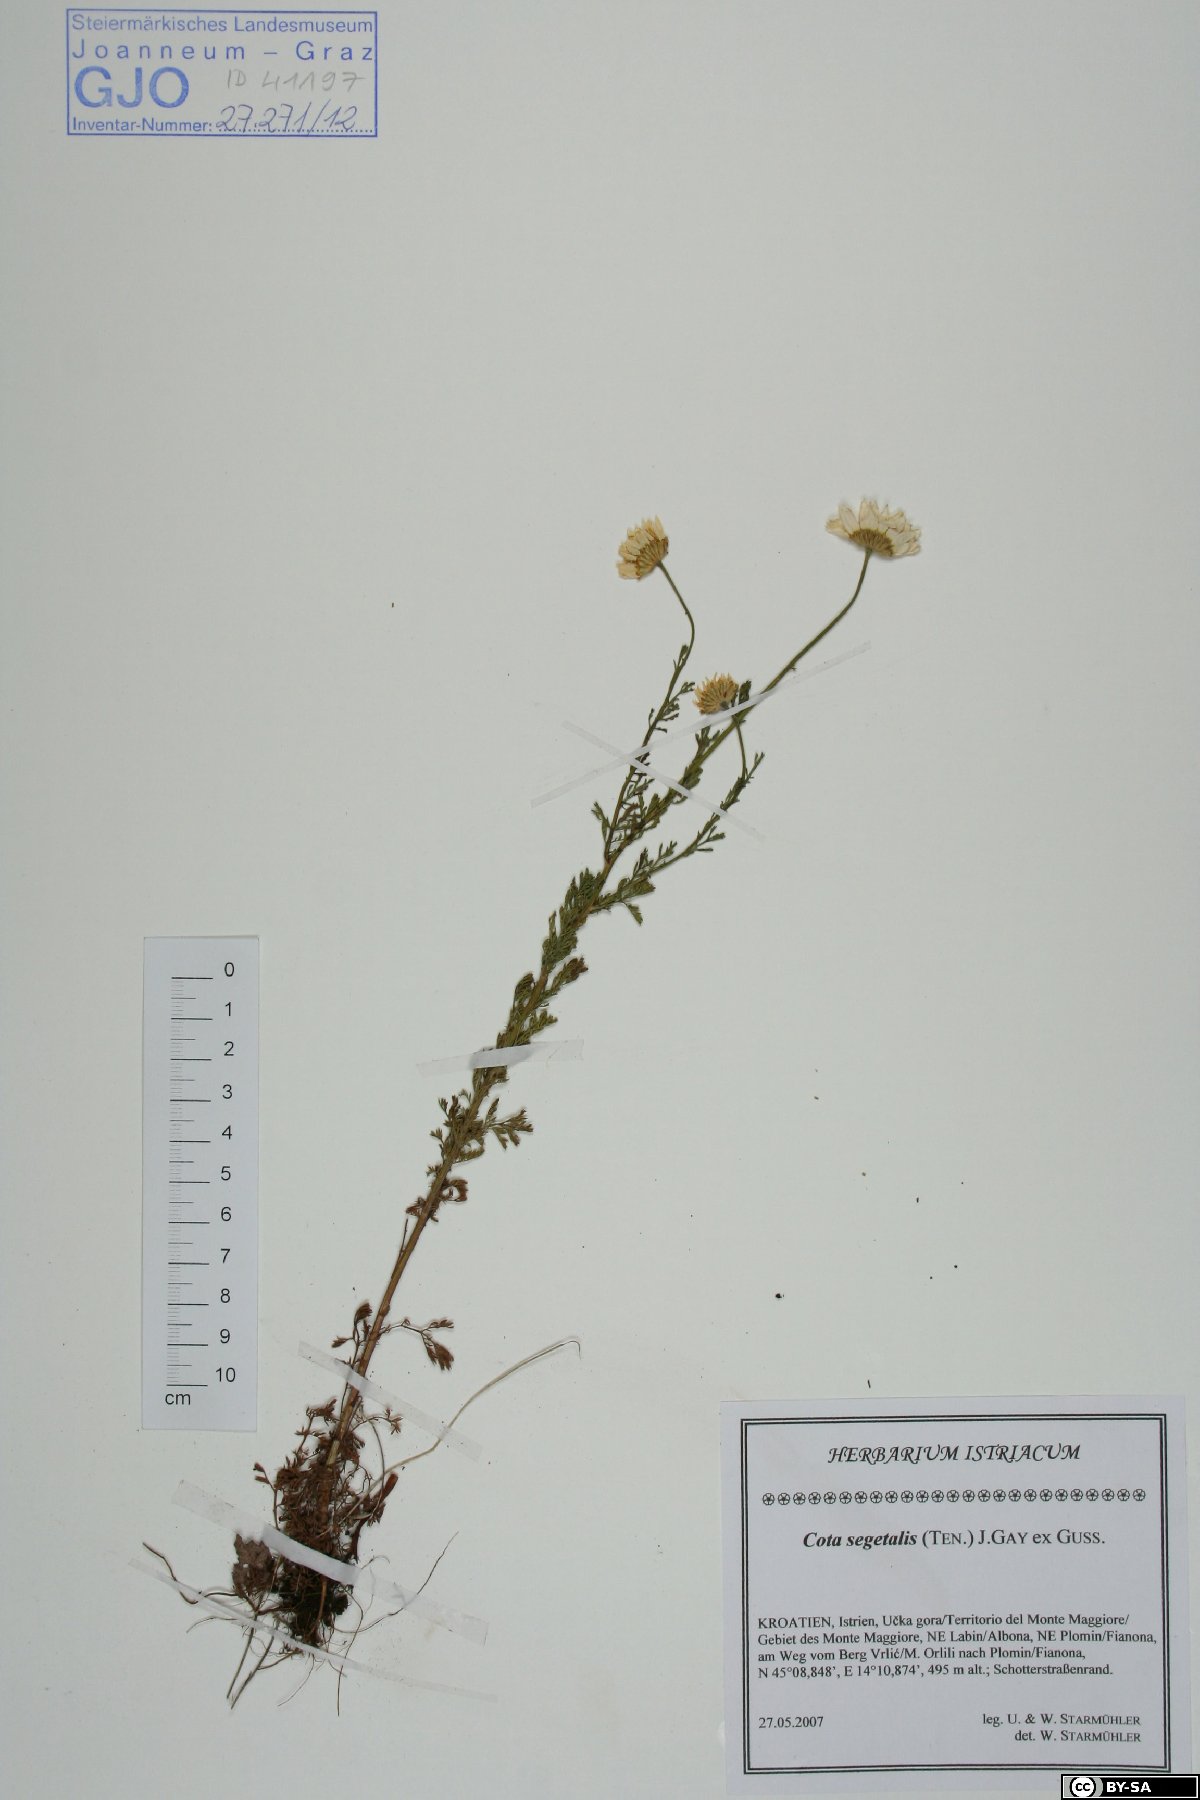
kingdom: Plantae
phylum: Tracheophyta
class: Magnoliopsida
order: Asterales
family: Asteraceae
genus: Cota
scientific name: Cota segetalis
